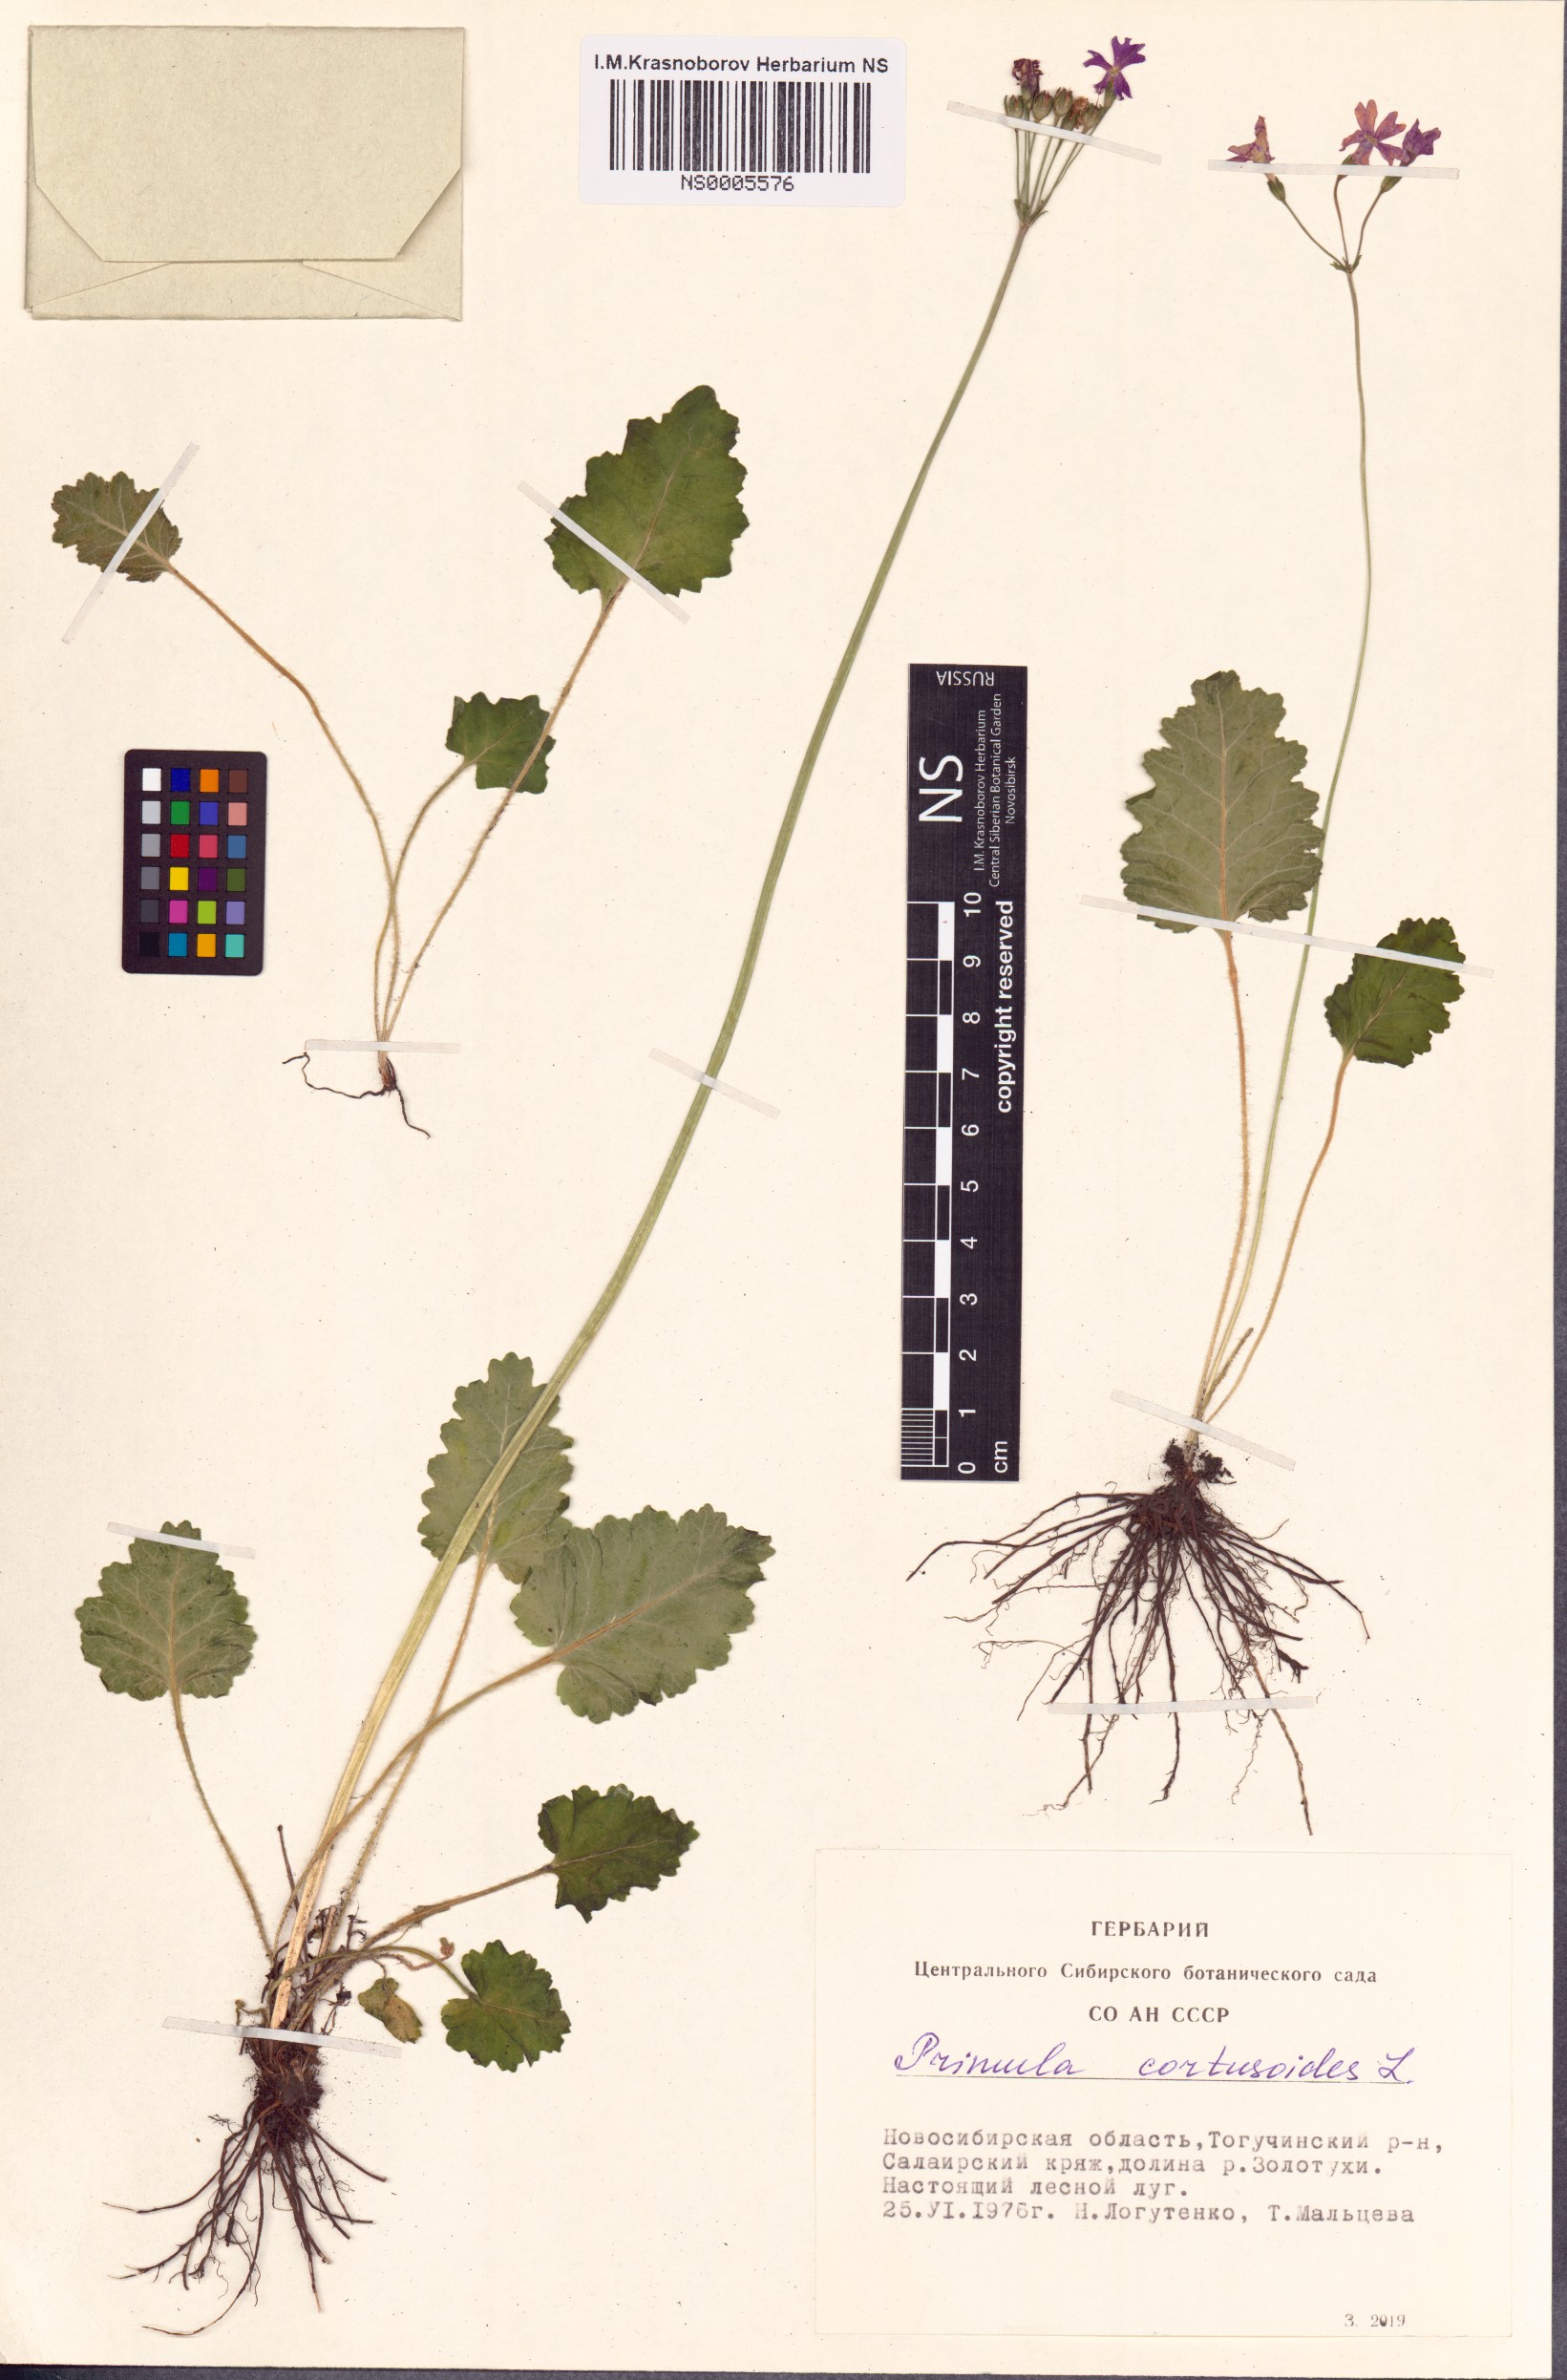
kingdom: Plantae
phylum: Tracheophyta
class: Magnoliopsida
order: Ericales
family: Primulaceae
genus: Primula
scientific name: Primula cortusoides
